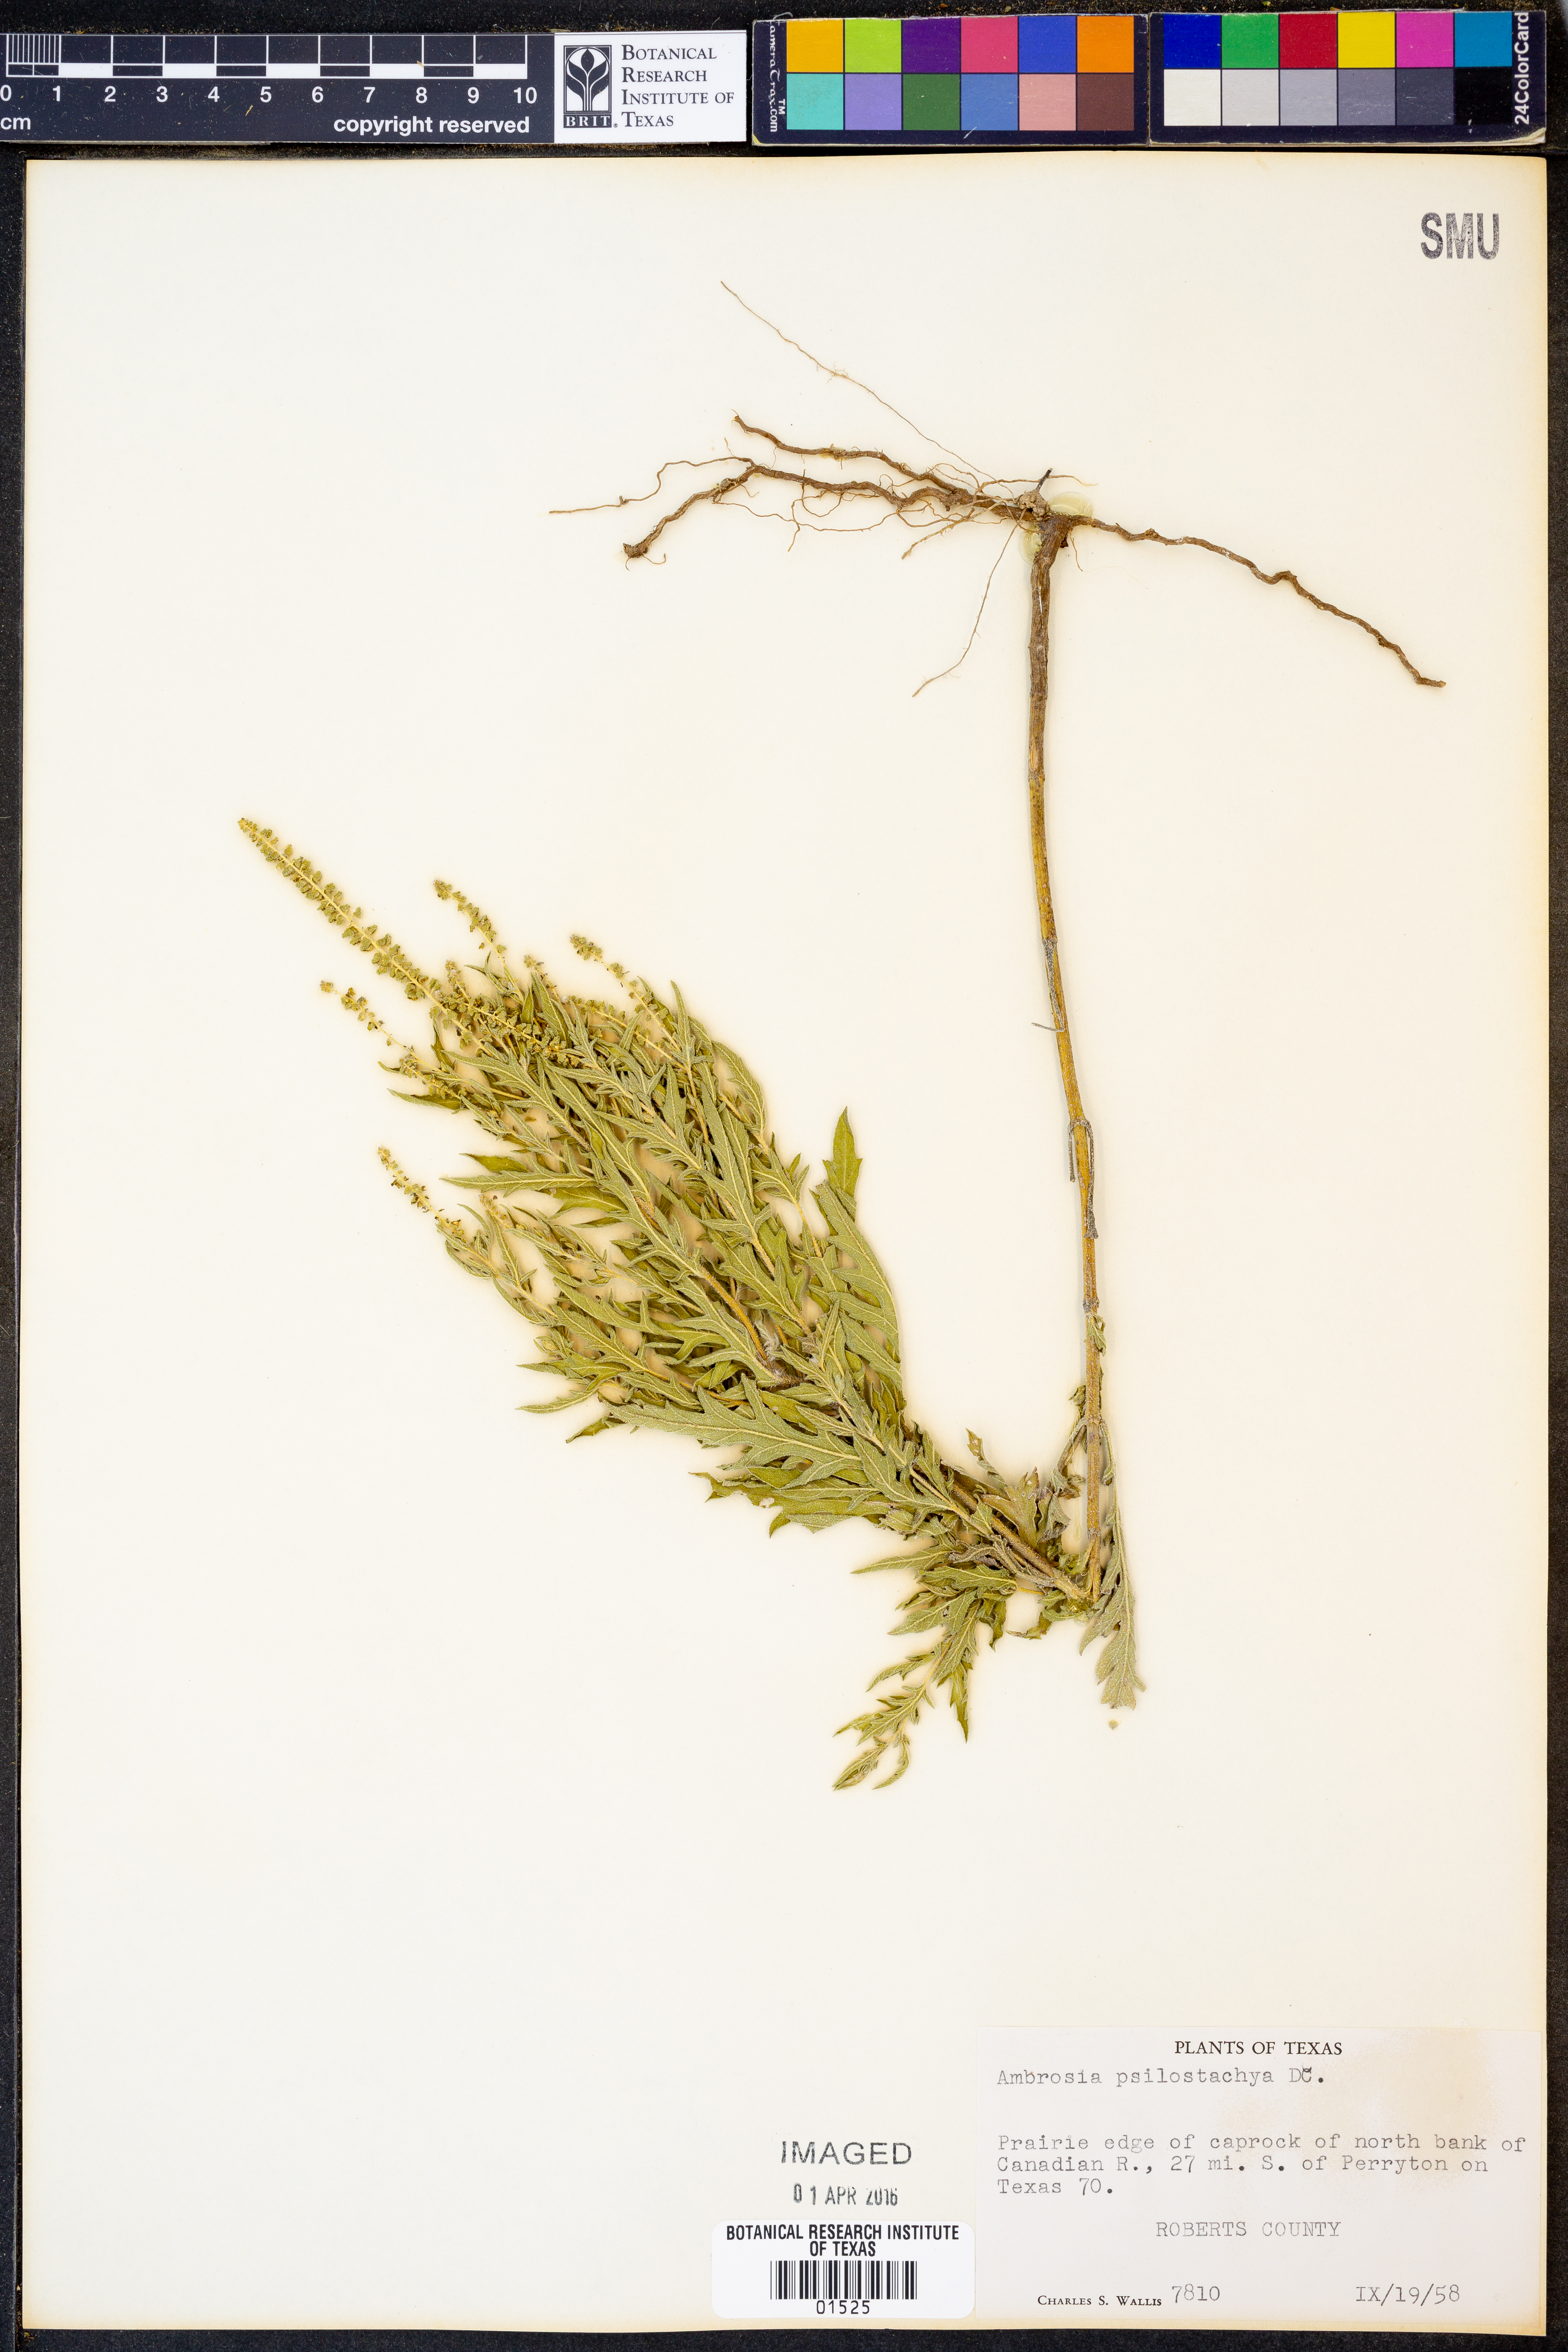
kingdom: Plantae
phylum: Tracheophyta
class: Magnoliopsida
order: Asterales
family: Asteraceae
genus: Ambrosia
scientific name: Ambrosia psilostachya
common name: Perennial ragweed
